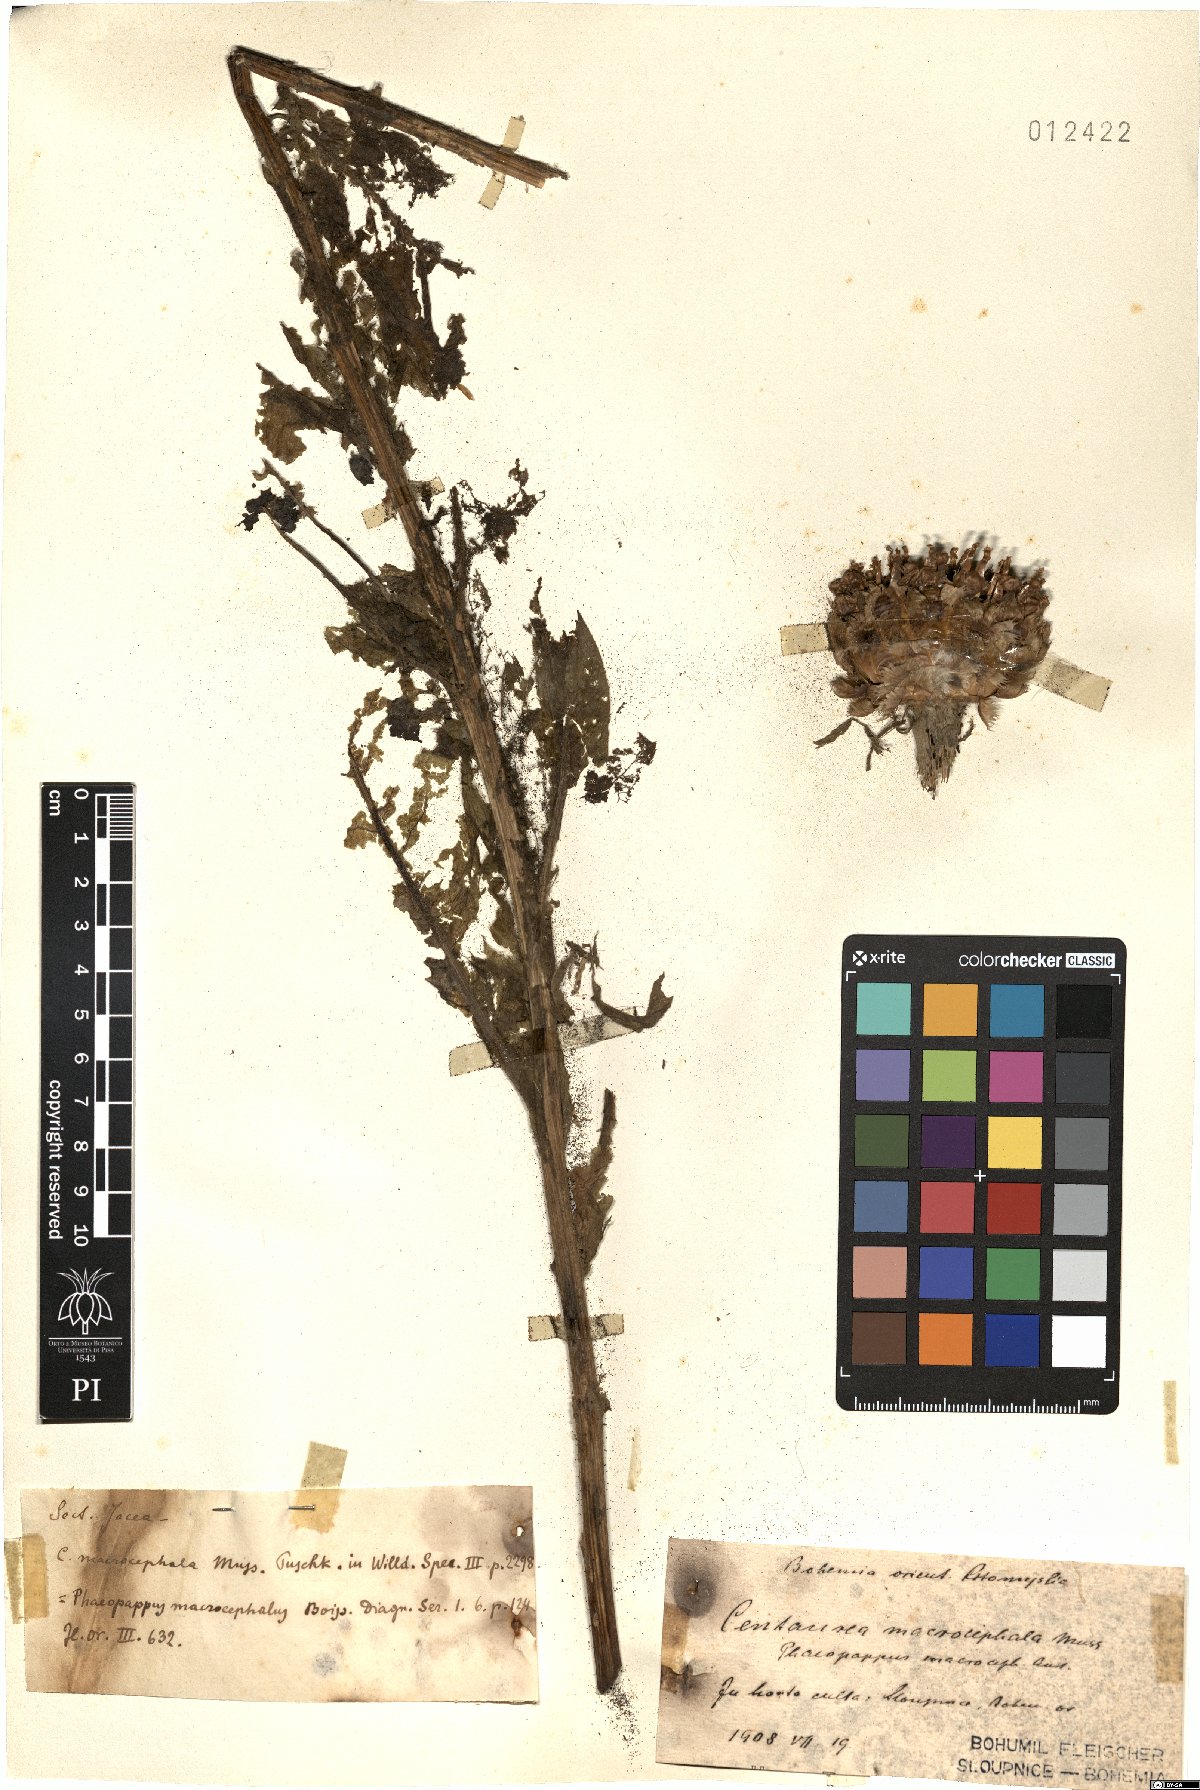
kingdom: Plantae
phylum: Tracheophyta
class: Magnoliopsida
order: Asterales
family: Asteraceae
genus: Centaurea
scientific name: Centaurea macrocephala
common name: Big-head knapweed
